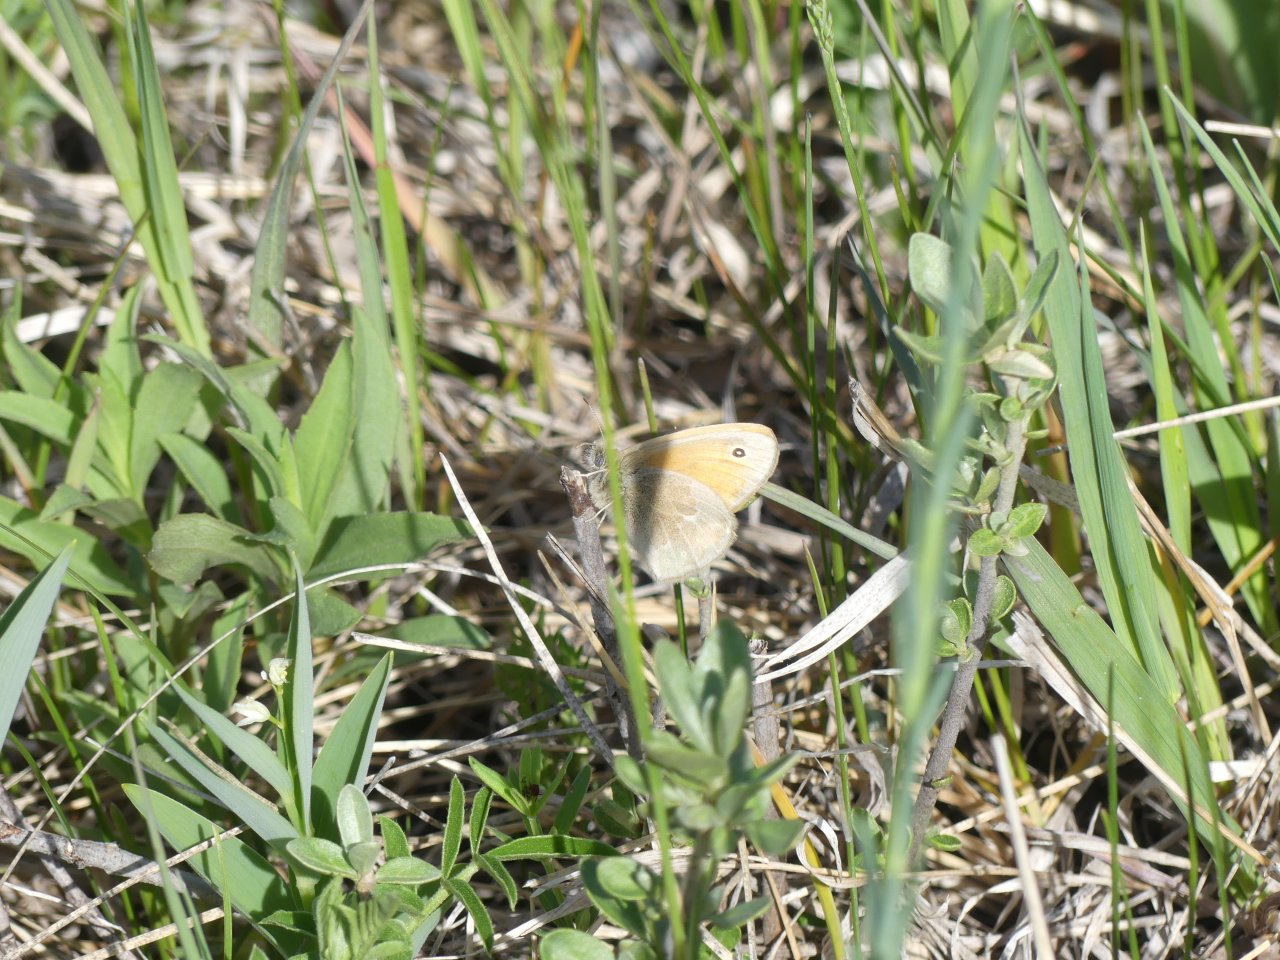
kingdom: Animalia
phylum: Arthropoda
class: Insecta
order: Lepidoptera
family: Nymphalidae
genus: Coenonympha
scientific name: Coenonympha tullia
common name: Large Heath
